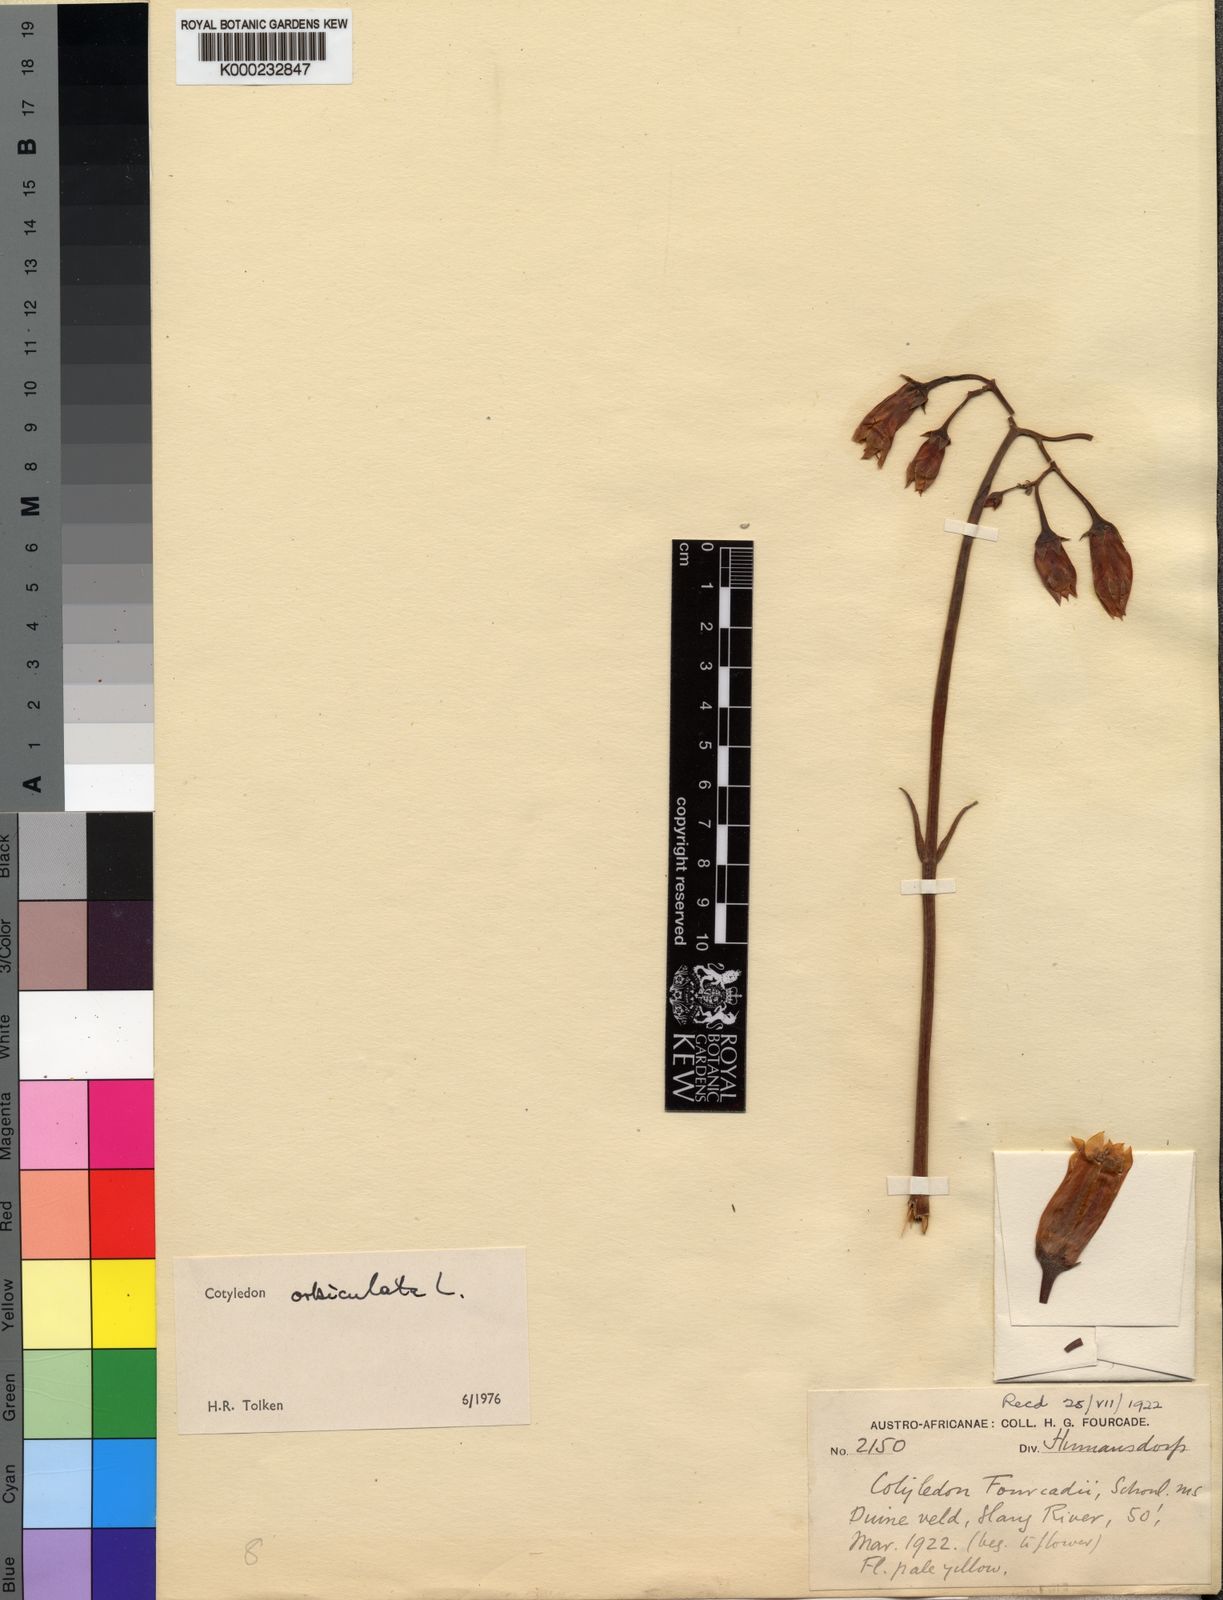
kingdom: Plantae
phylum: Tracheophyta
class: Magnoliopsida
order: Saxifragales
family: Crassulaceae
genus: Cotyledon
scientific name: Cotyledon orbiculata
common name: Pig's ear
